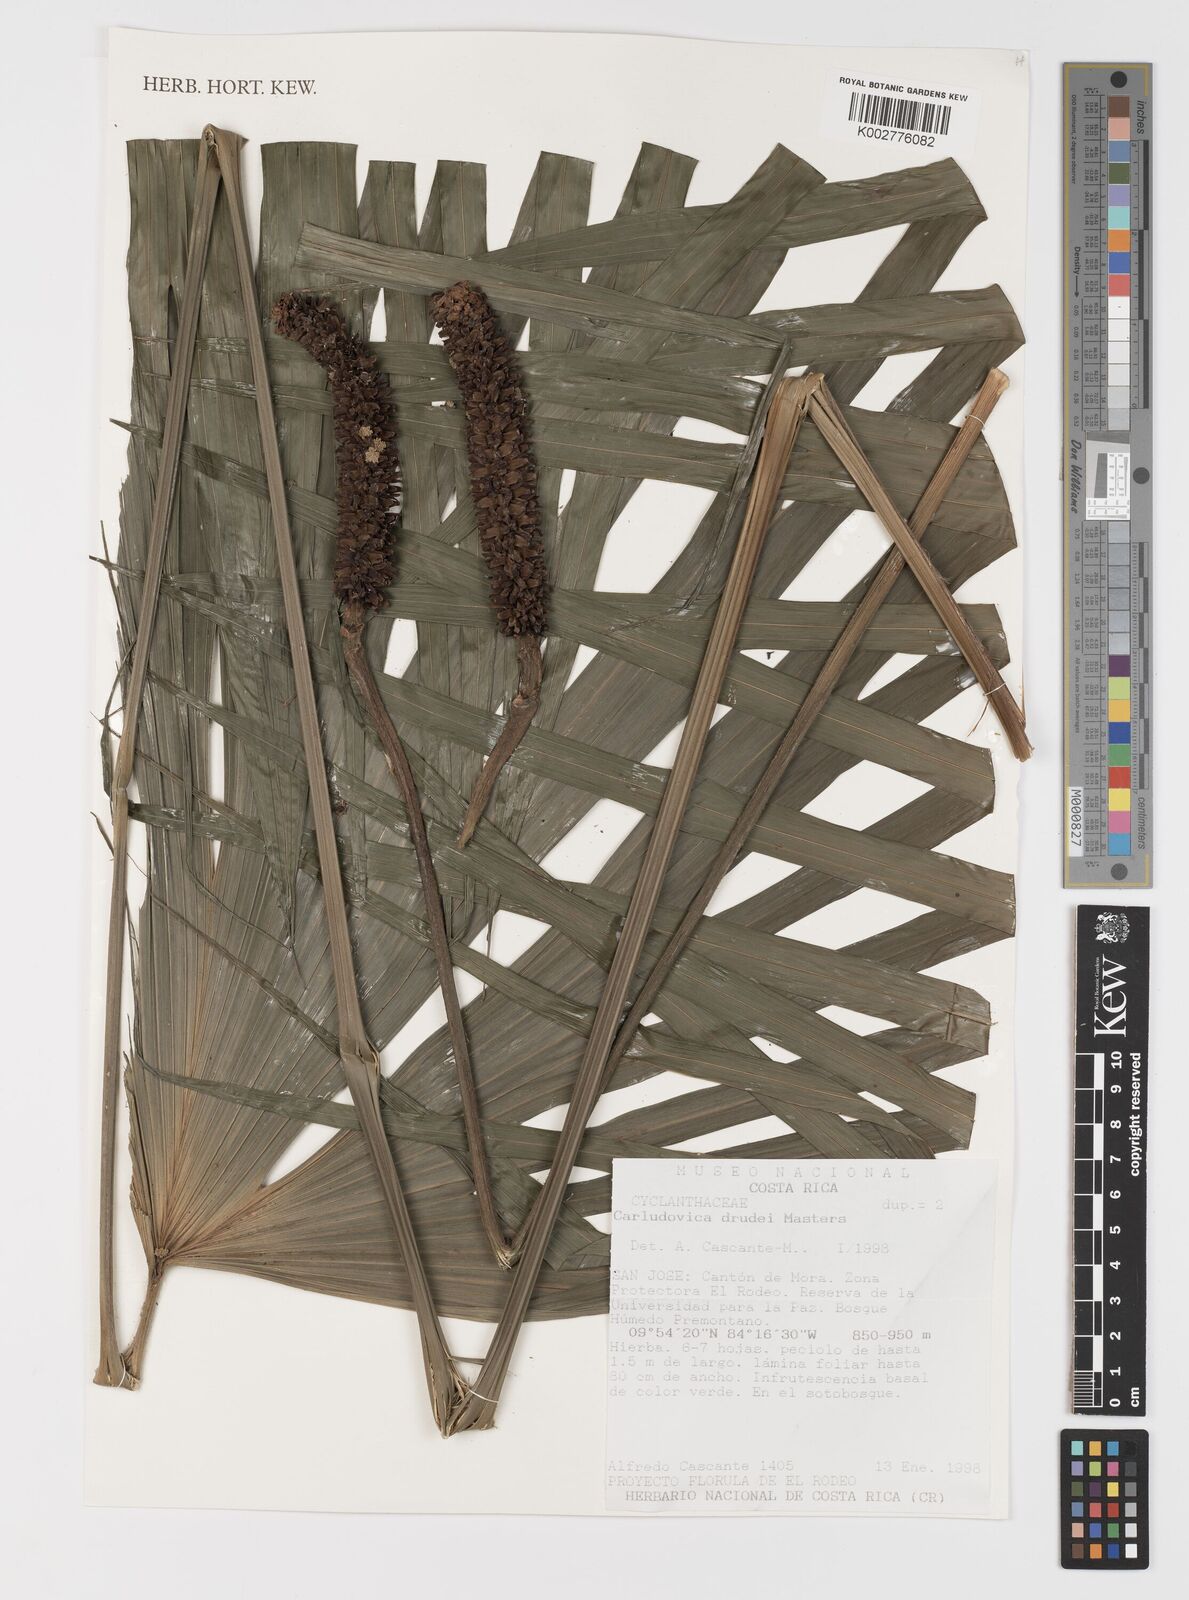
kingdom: Plantae
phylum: Tracheophyta
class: Liliopsida
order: Pandanales
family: Cyclanthaceae
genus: Carludovica
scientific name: Carludovica drudei
